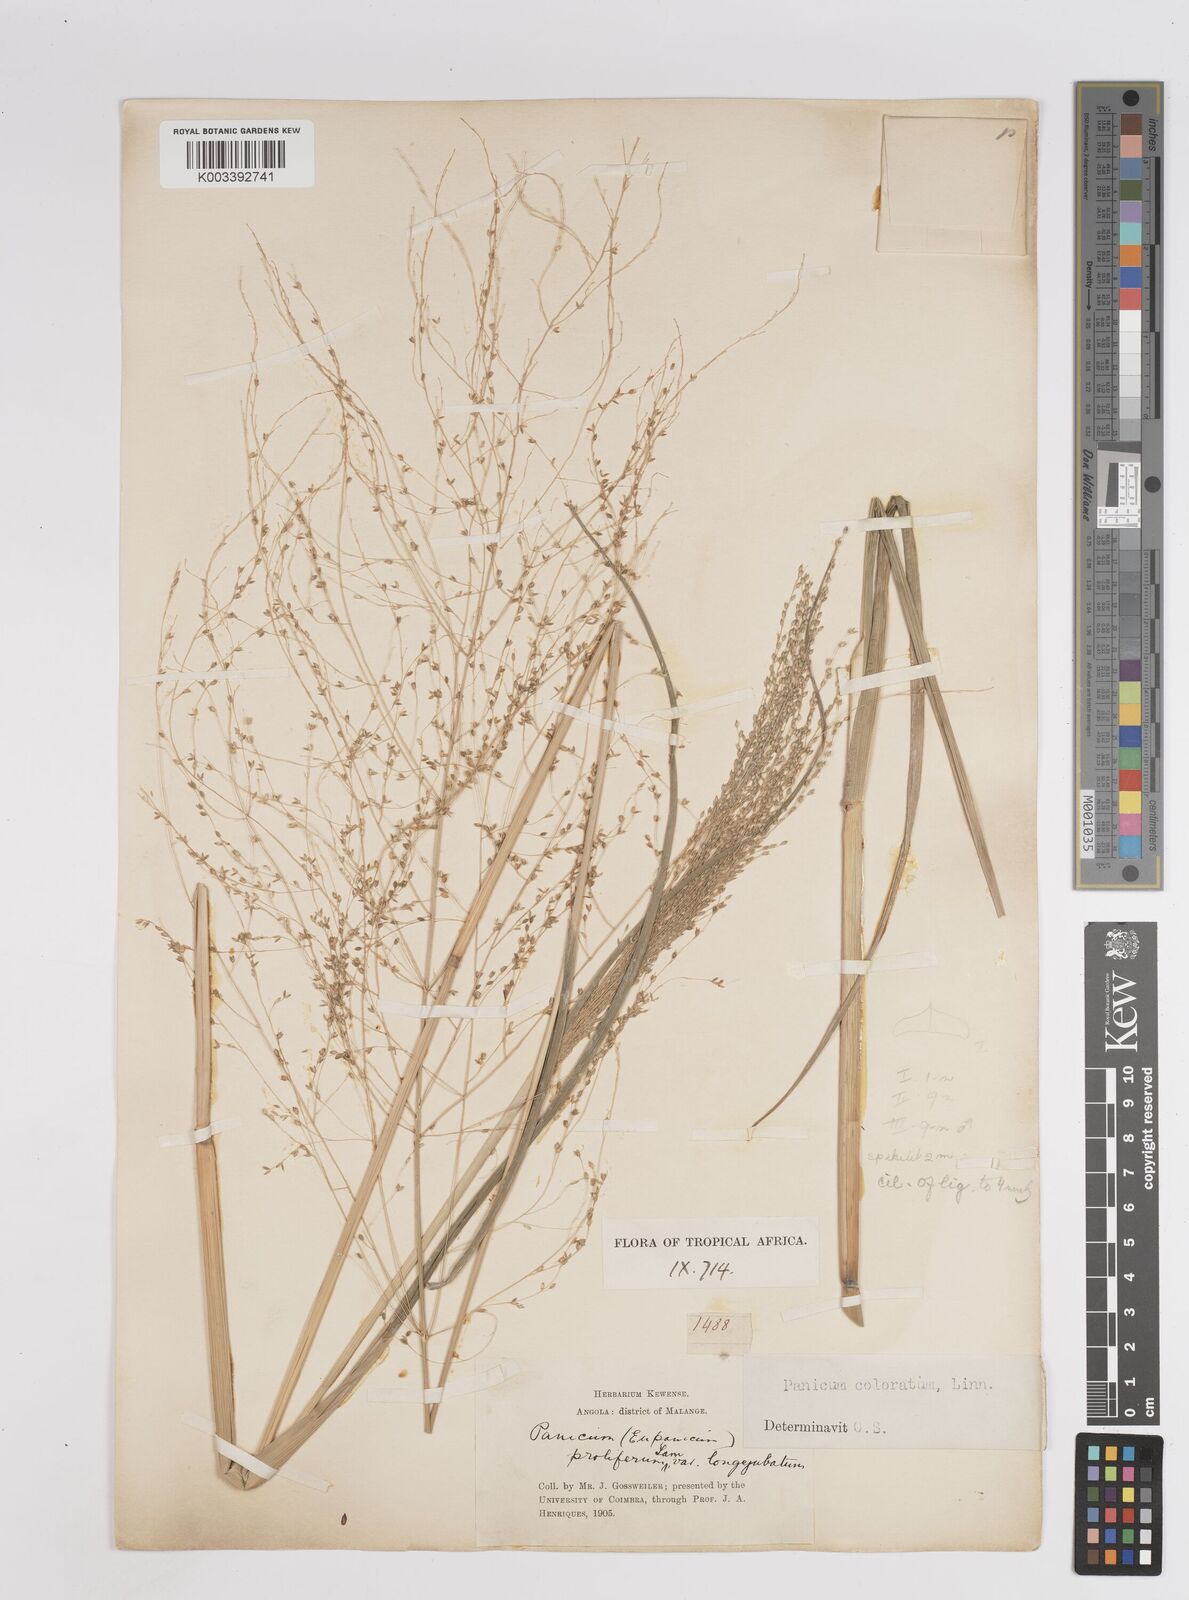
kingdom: Plantae
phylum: Tracheophyta
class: Liliopsida
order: Poales
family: Poaceae
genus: Panicum
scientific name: Panicum coloratum
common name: Kleingrass
